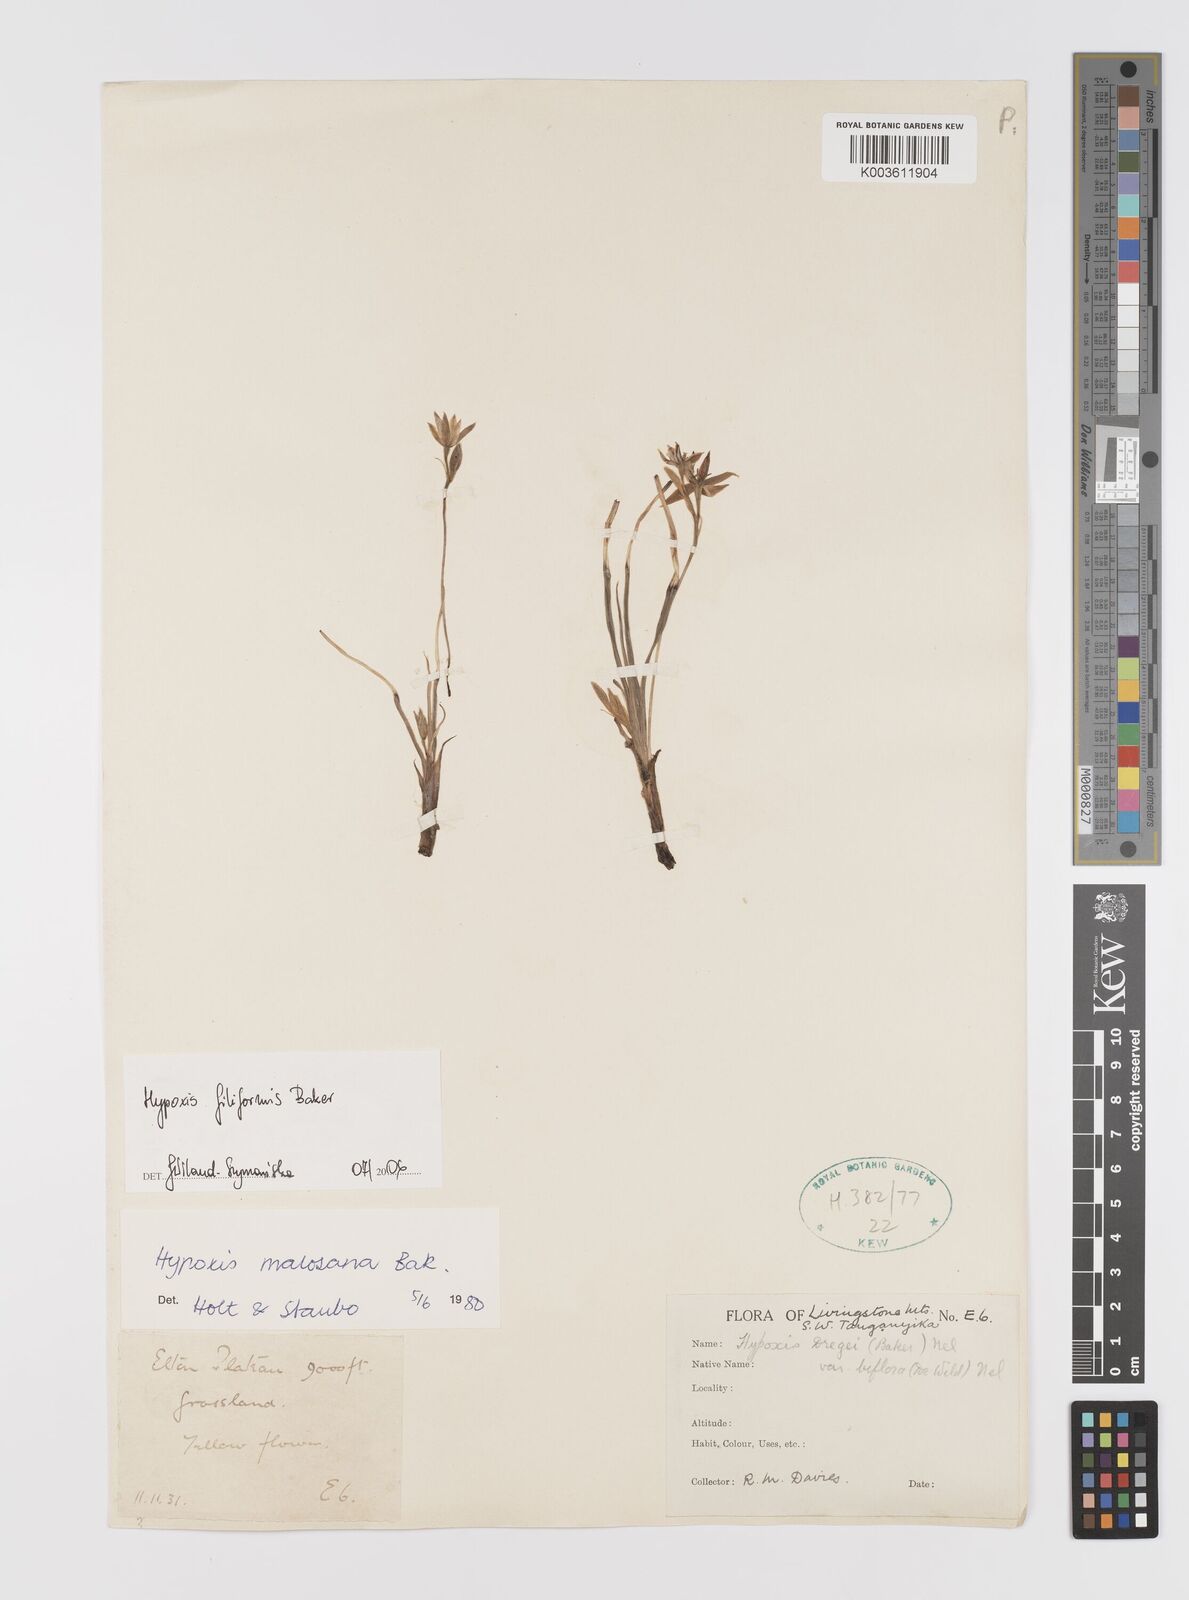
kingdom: Plantae
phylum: Tracheophyta
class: Liliopsida
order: Asparagales
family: Hypoxidaceae
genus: Hypoxis
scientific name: Hypoxis filiformis
